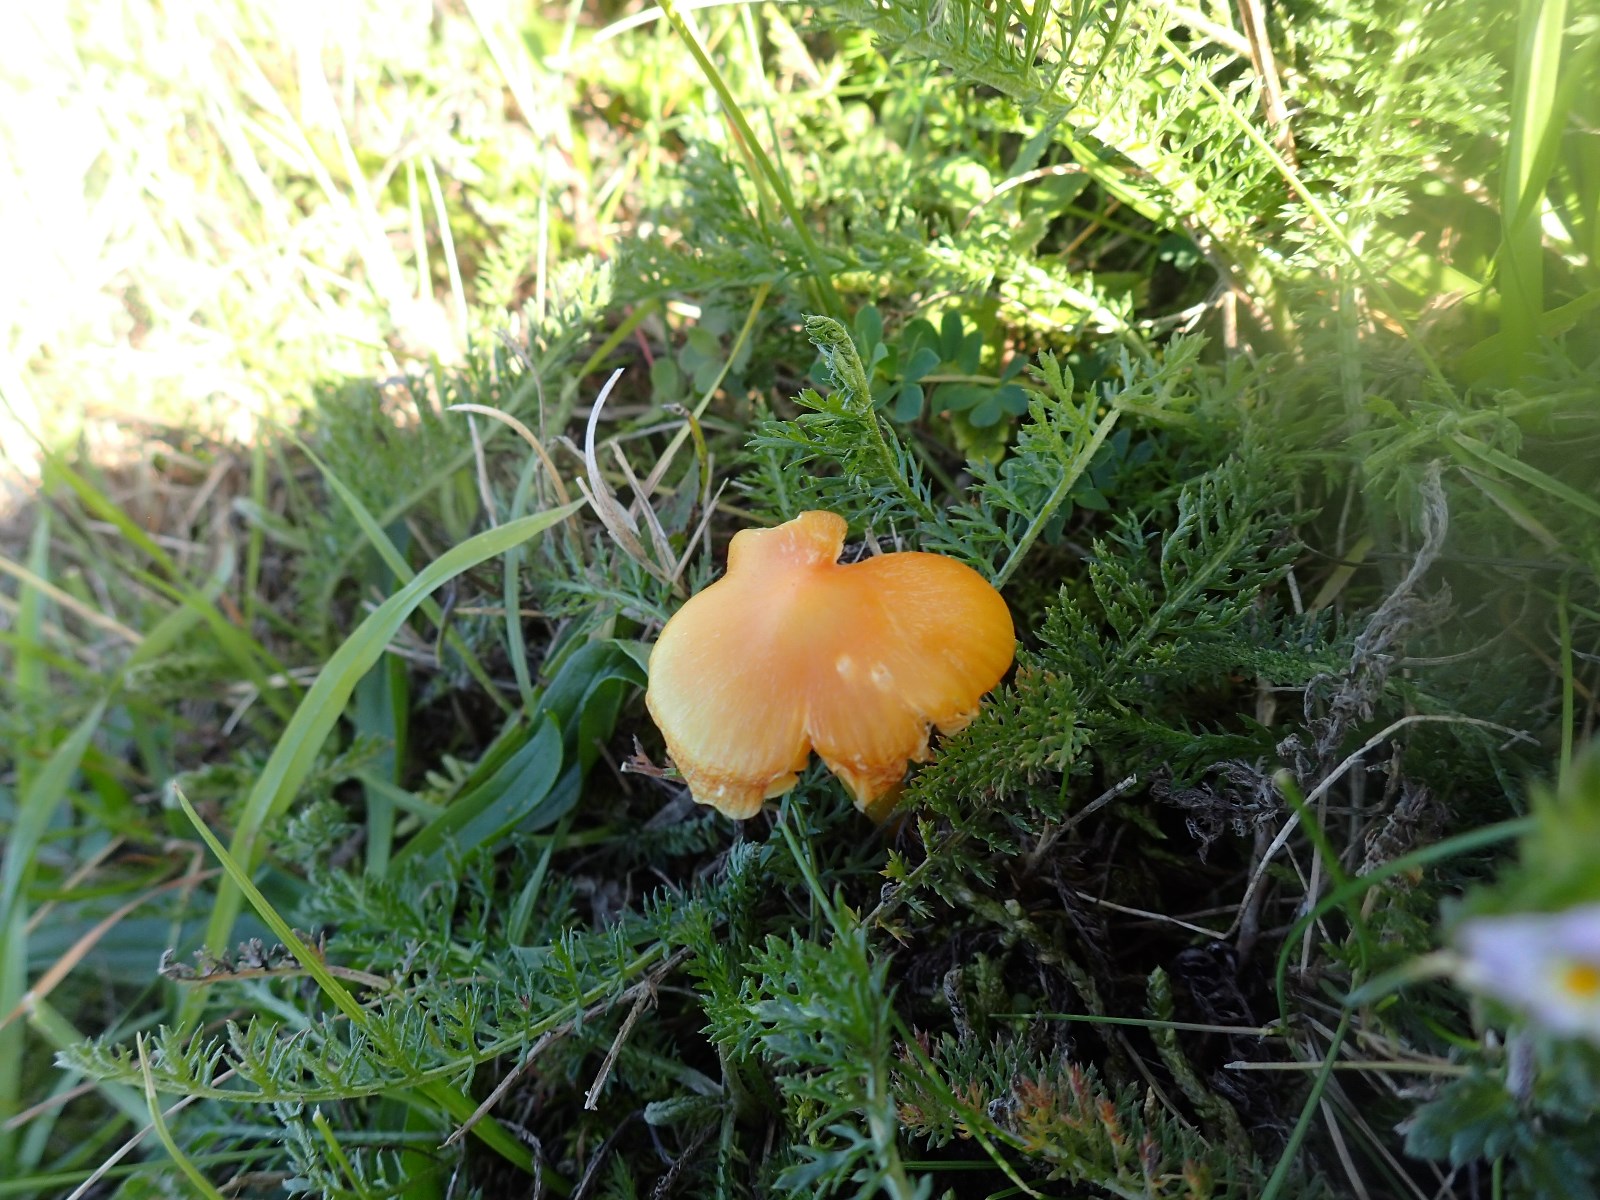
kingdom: Fungi
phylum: Basidiomycota
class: Agaricomycetes
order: Agaricales
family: Hygrophoraceae
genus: Hygrocybe
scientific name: Hygrocybe chlorophana
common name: gul vokshat
